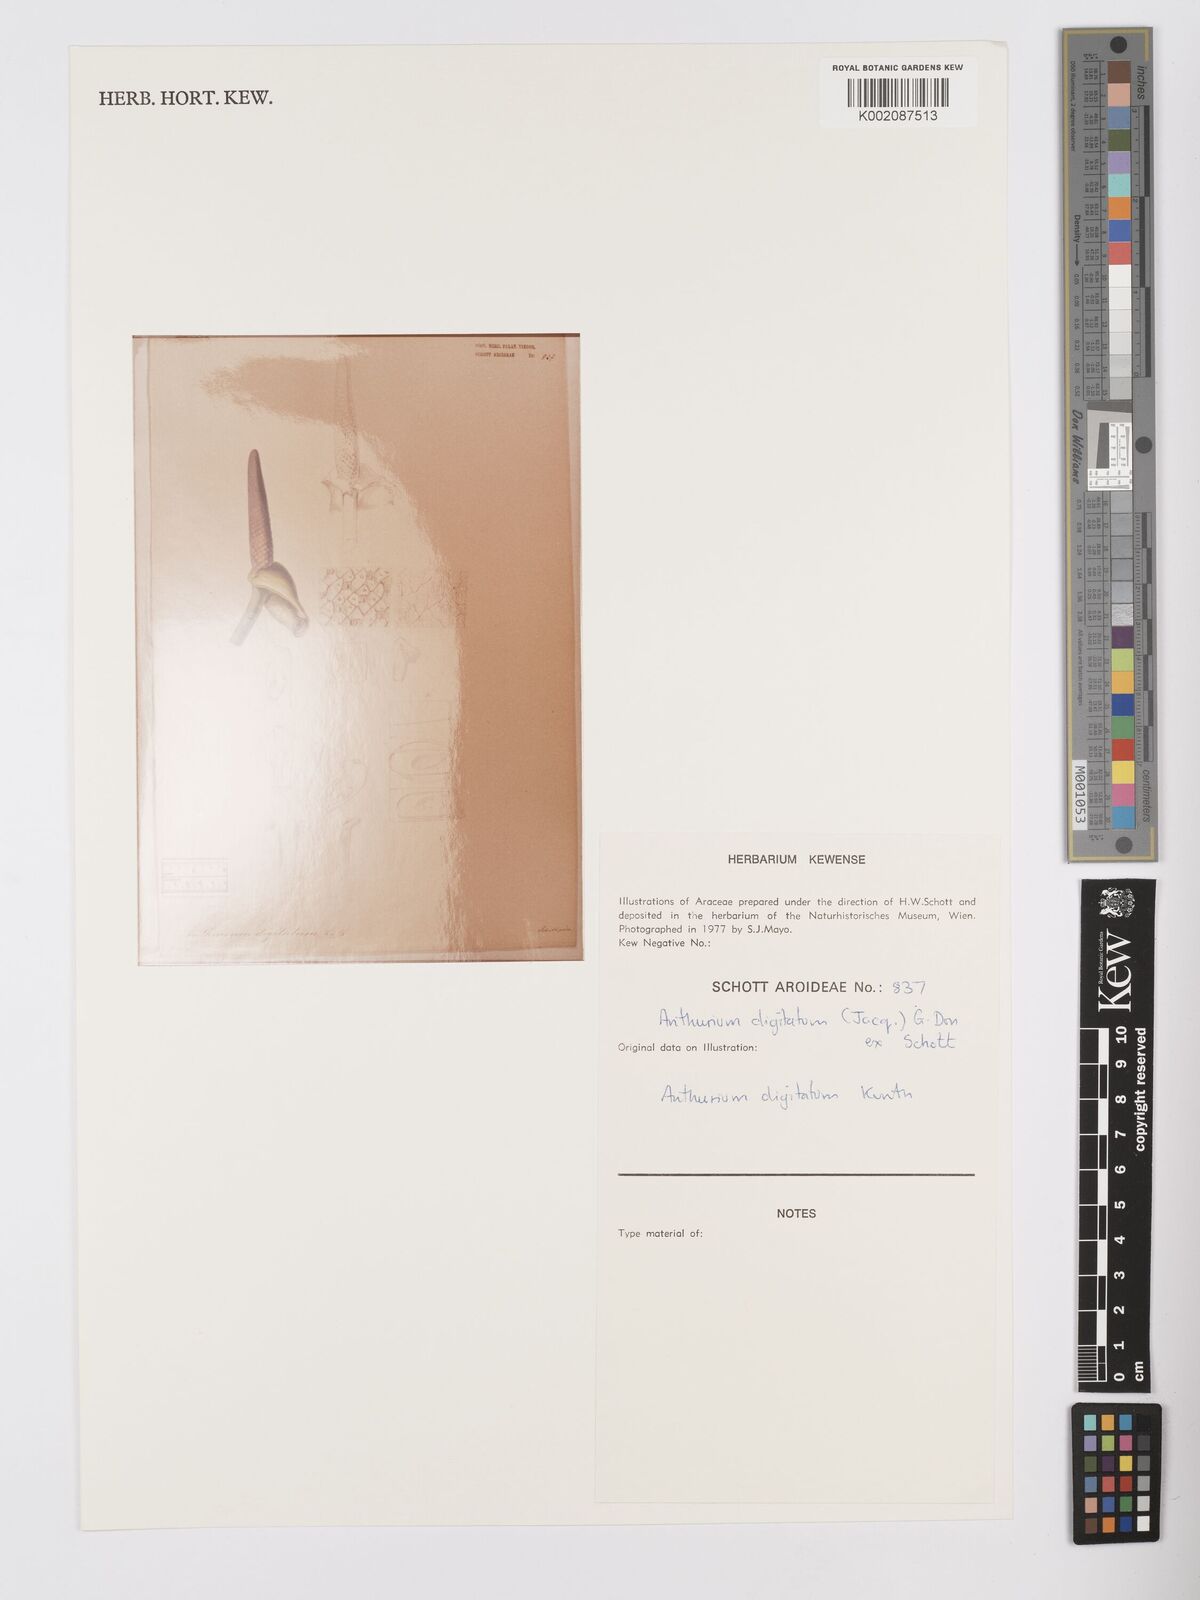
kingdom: Plantae
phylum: Tracheophyta
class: Liliopsida
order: Alismatales
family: Araceae
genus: Anthurium
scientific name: Anthurium digitatum
